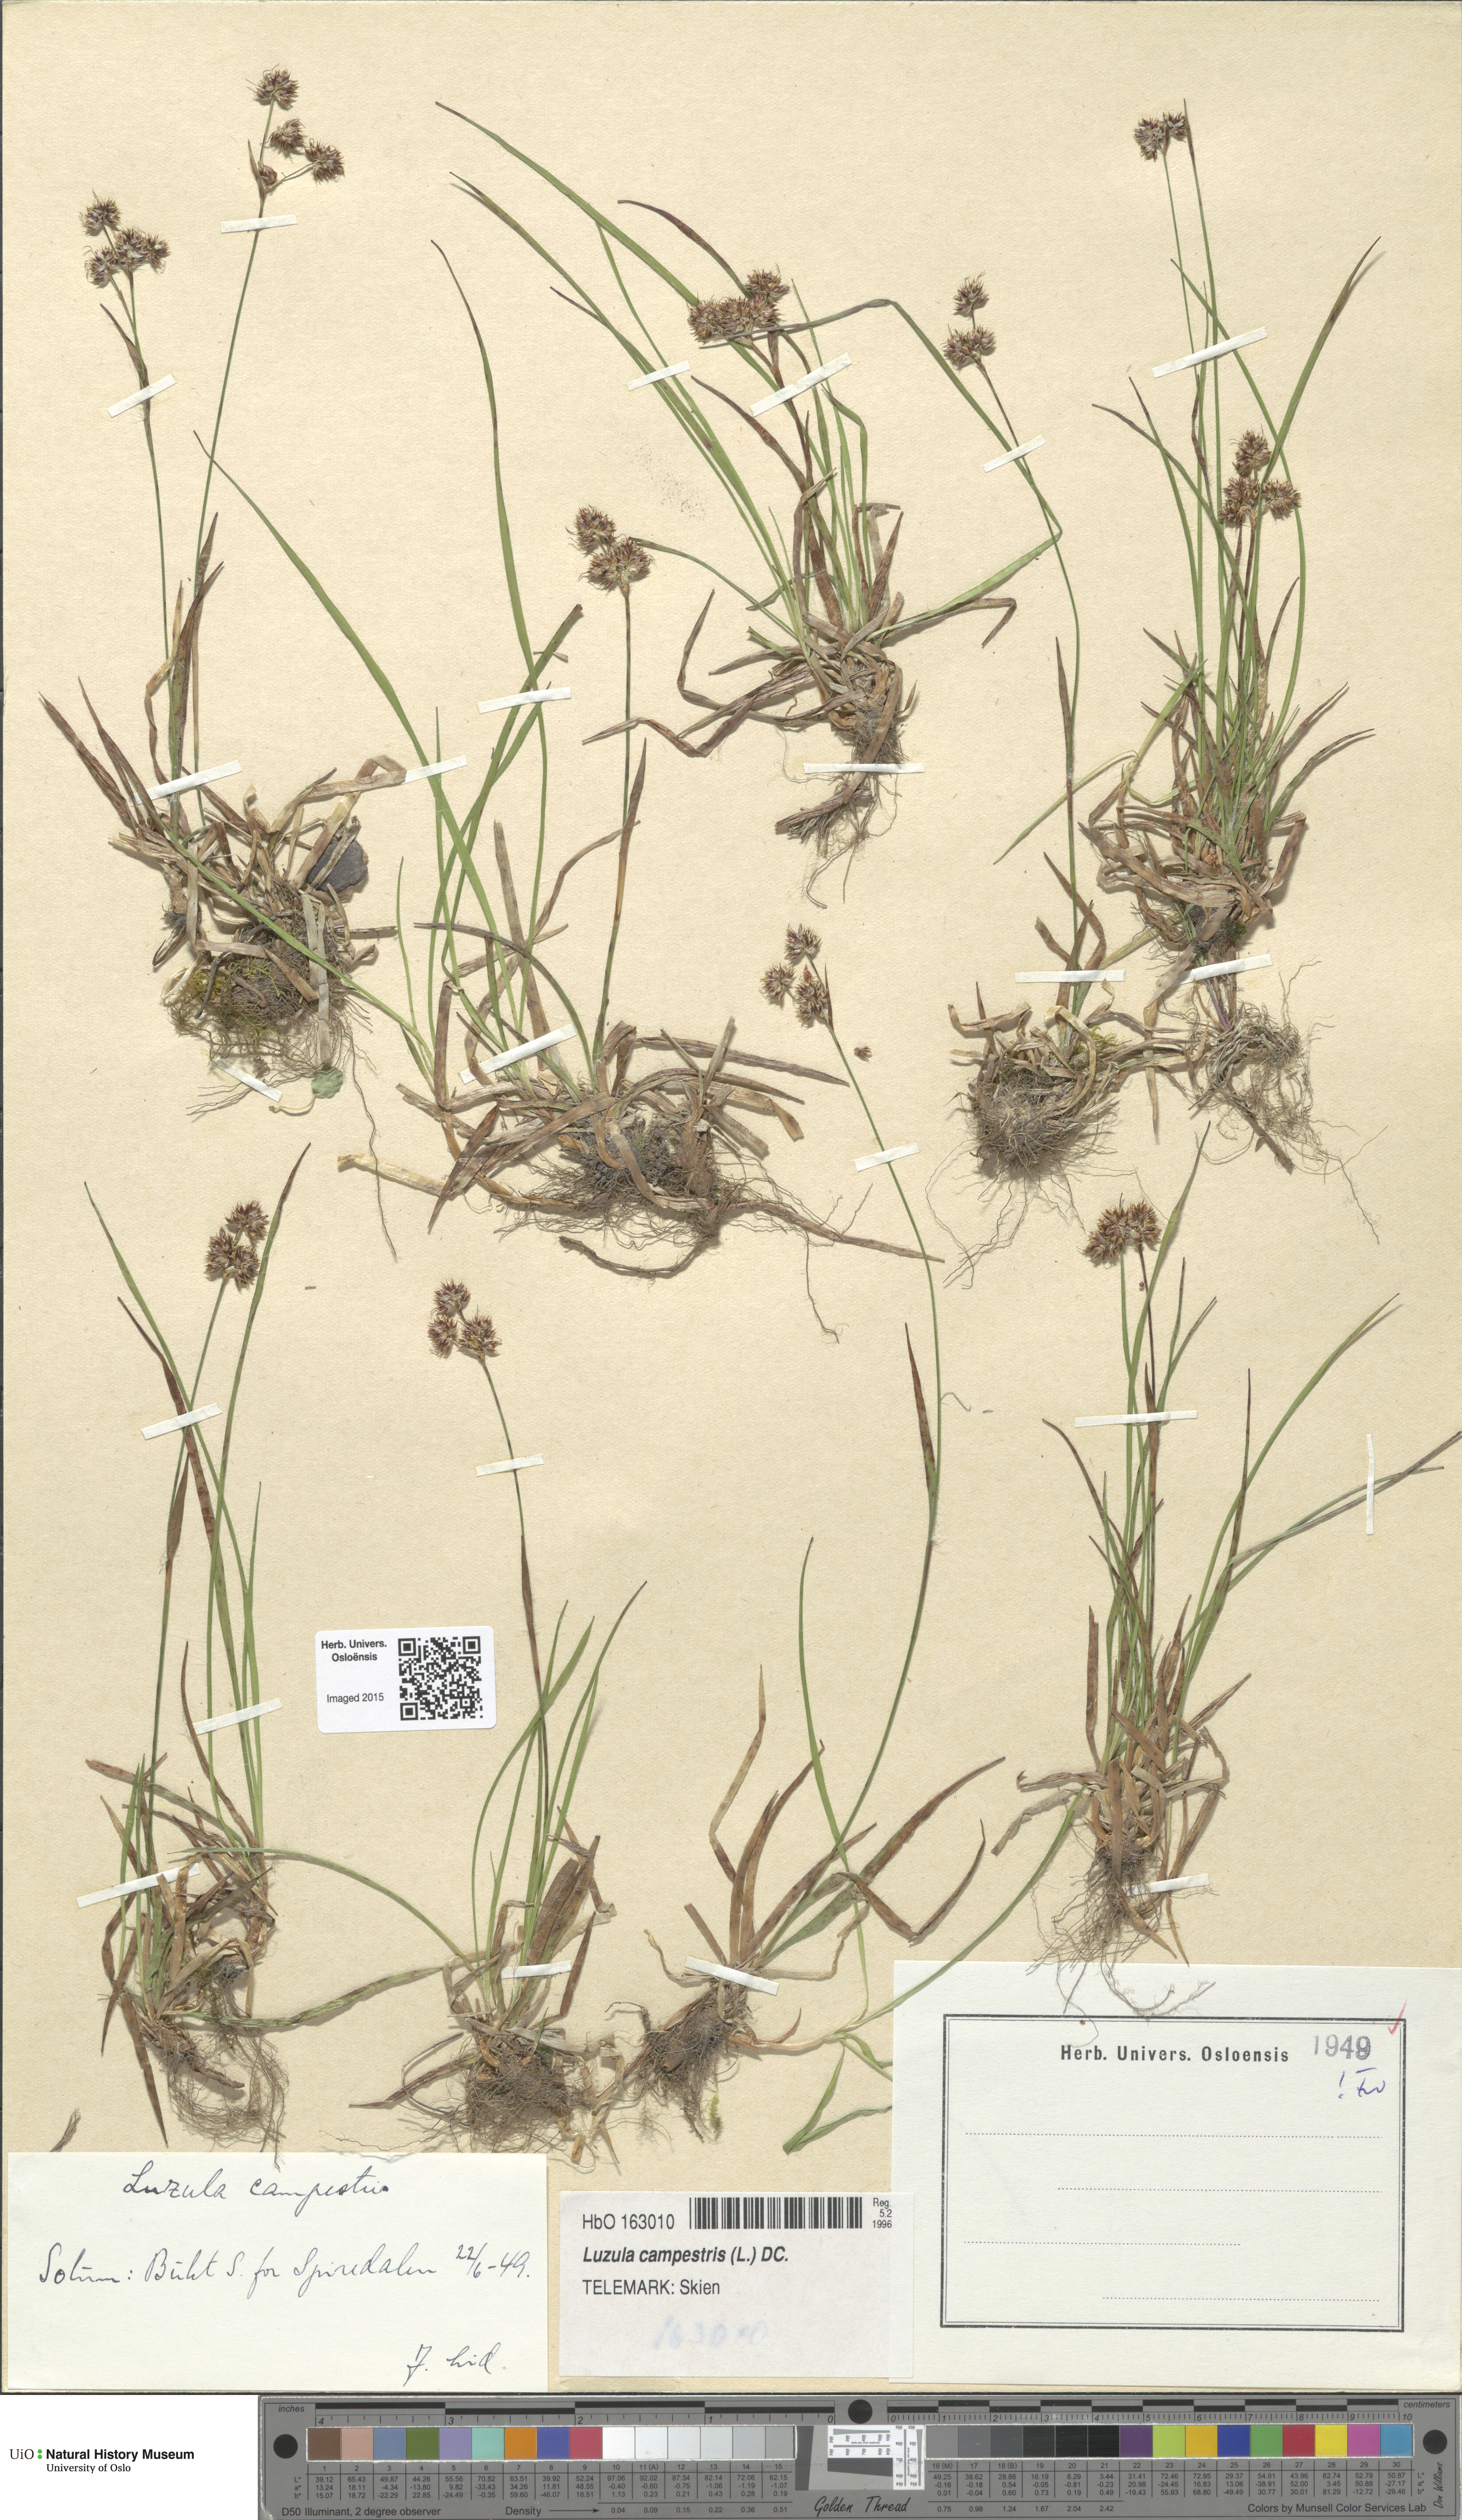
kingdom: Plantae
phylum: Tracheophyta
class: Liliopsida
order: Poales
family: Juncaceae
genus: Luzula
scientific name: Luzula campestris
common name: Field wood-rush
